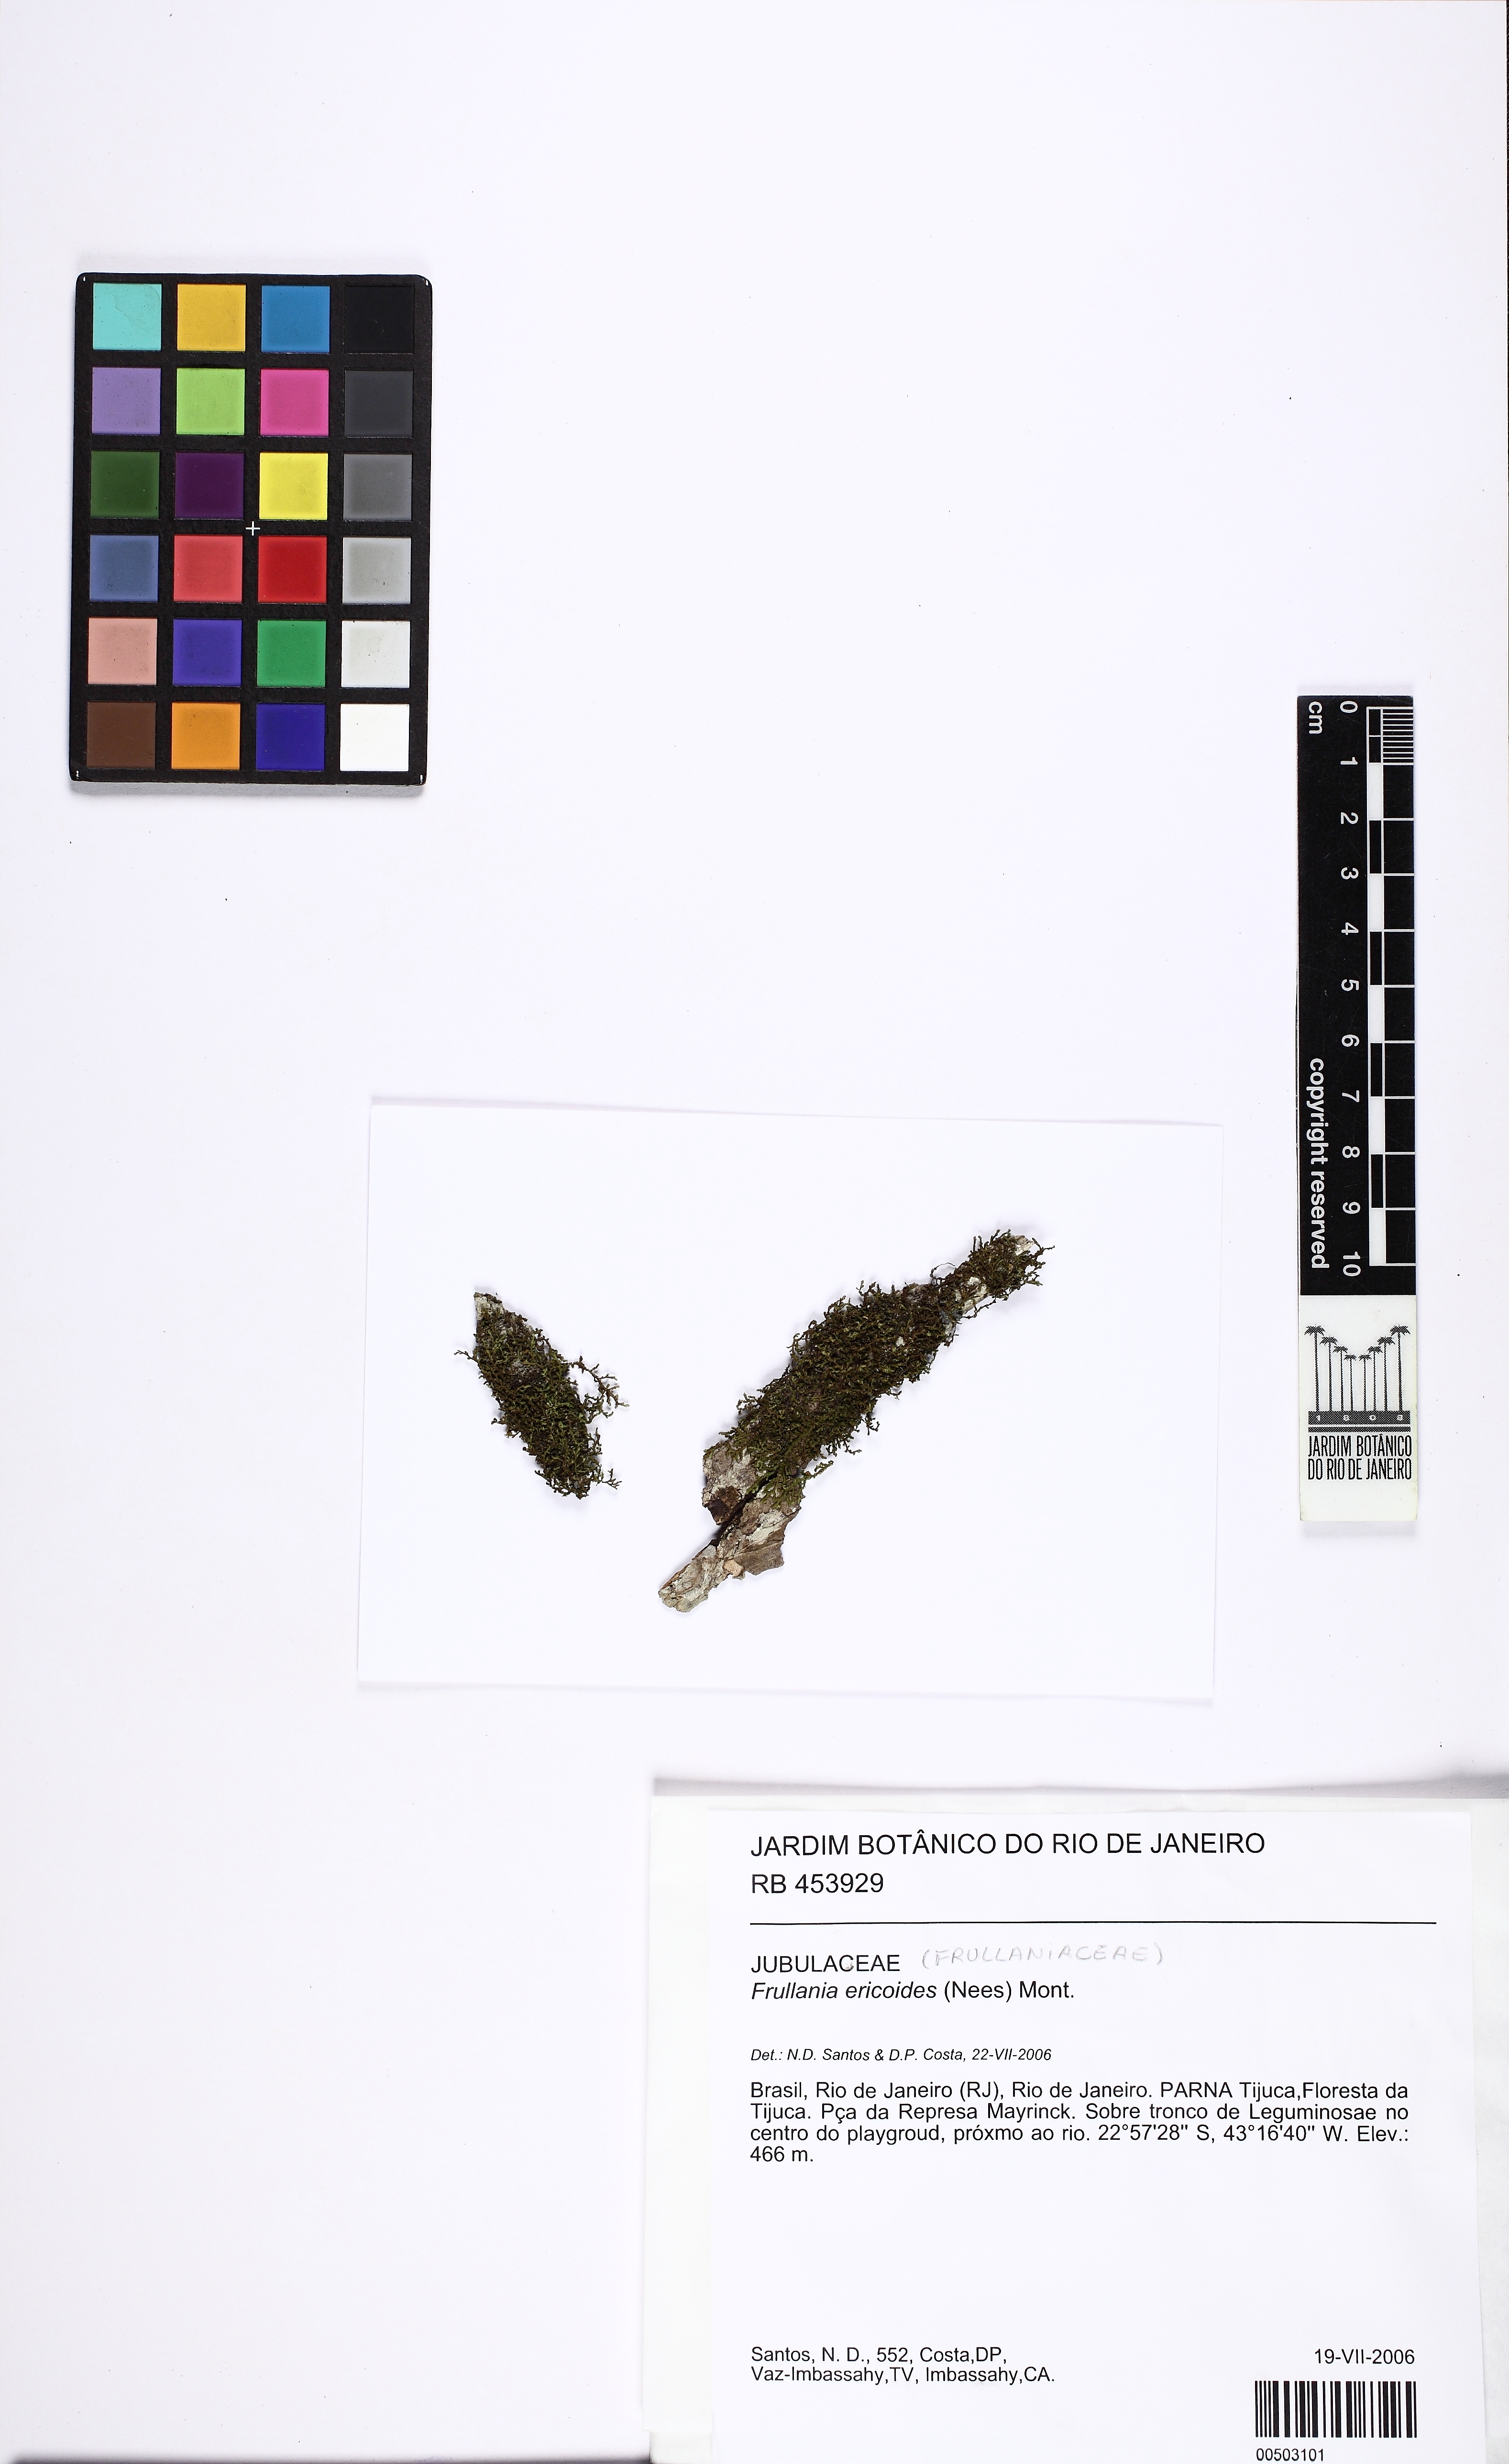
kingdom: Plantae
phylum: Marchantiophyta
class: Jungermanniopsida
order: Porellales
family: Frullaniaceae
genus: Frullania
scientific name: Frullania ericoides
